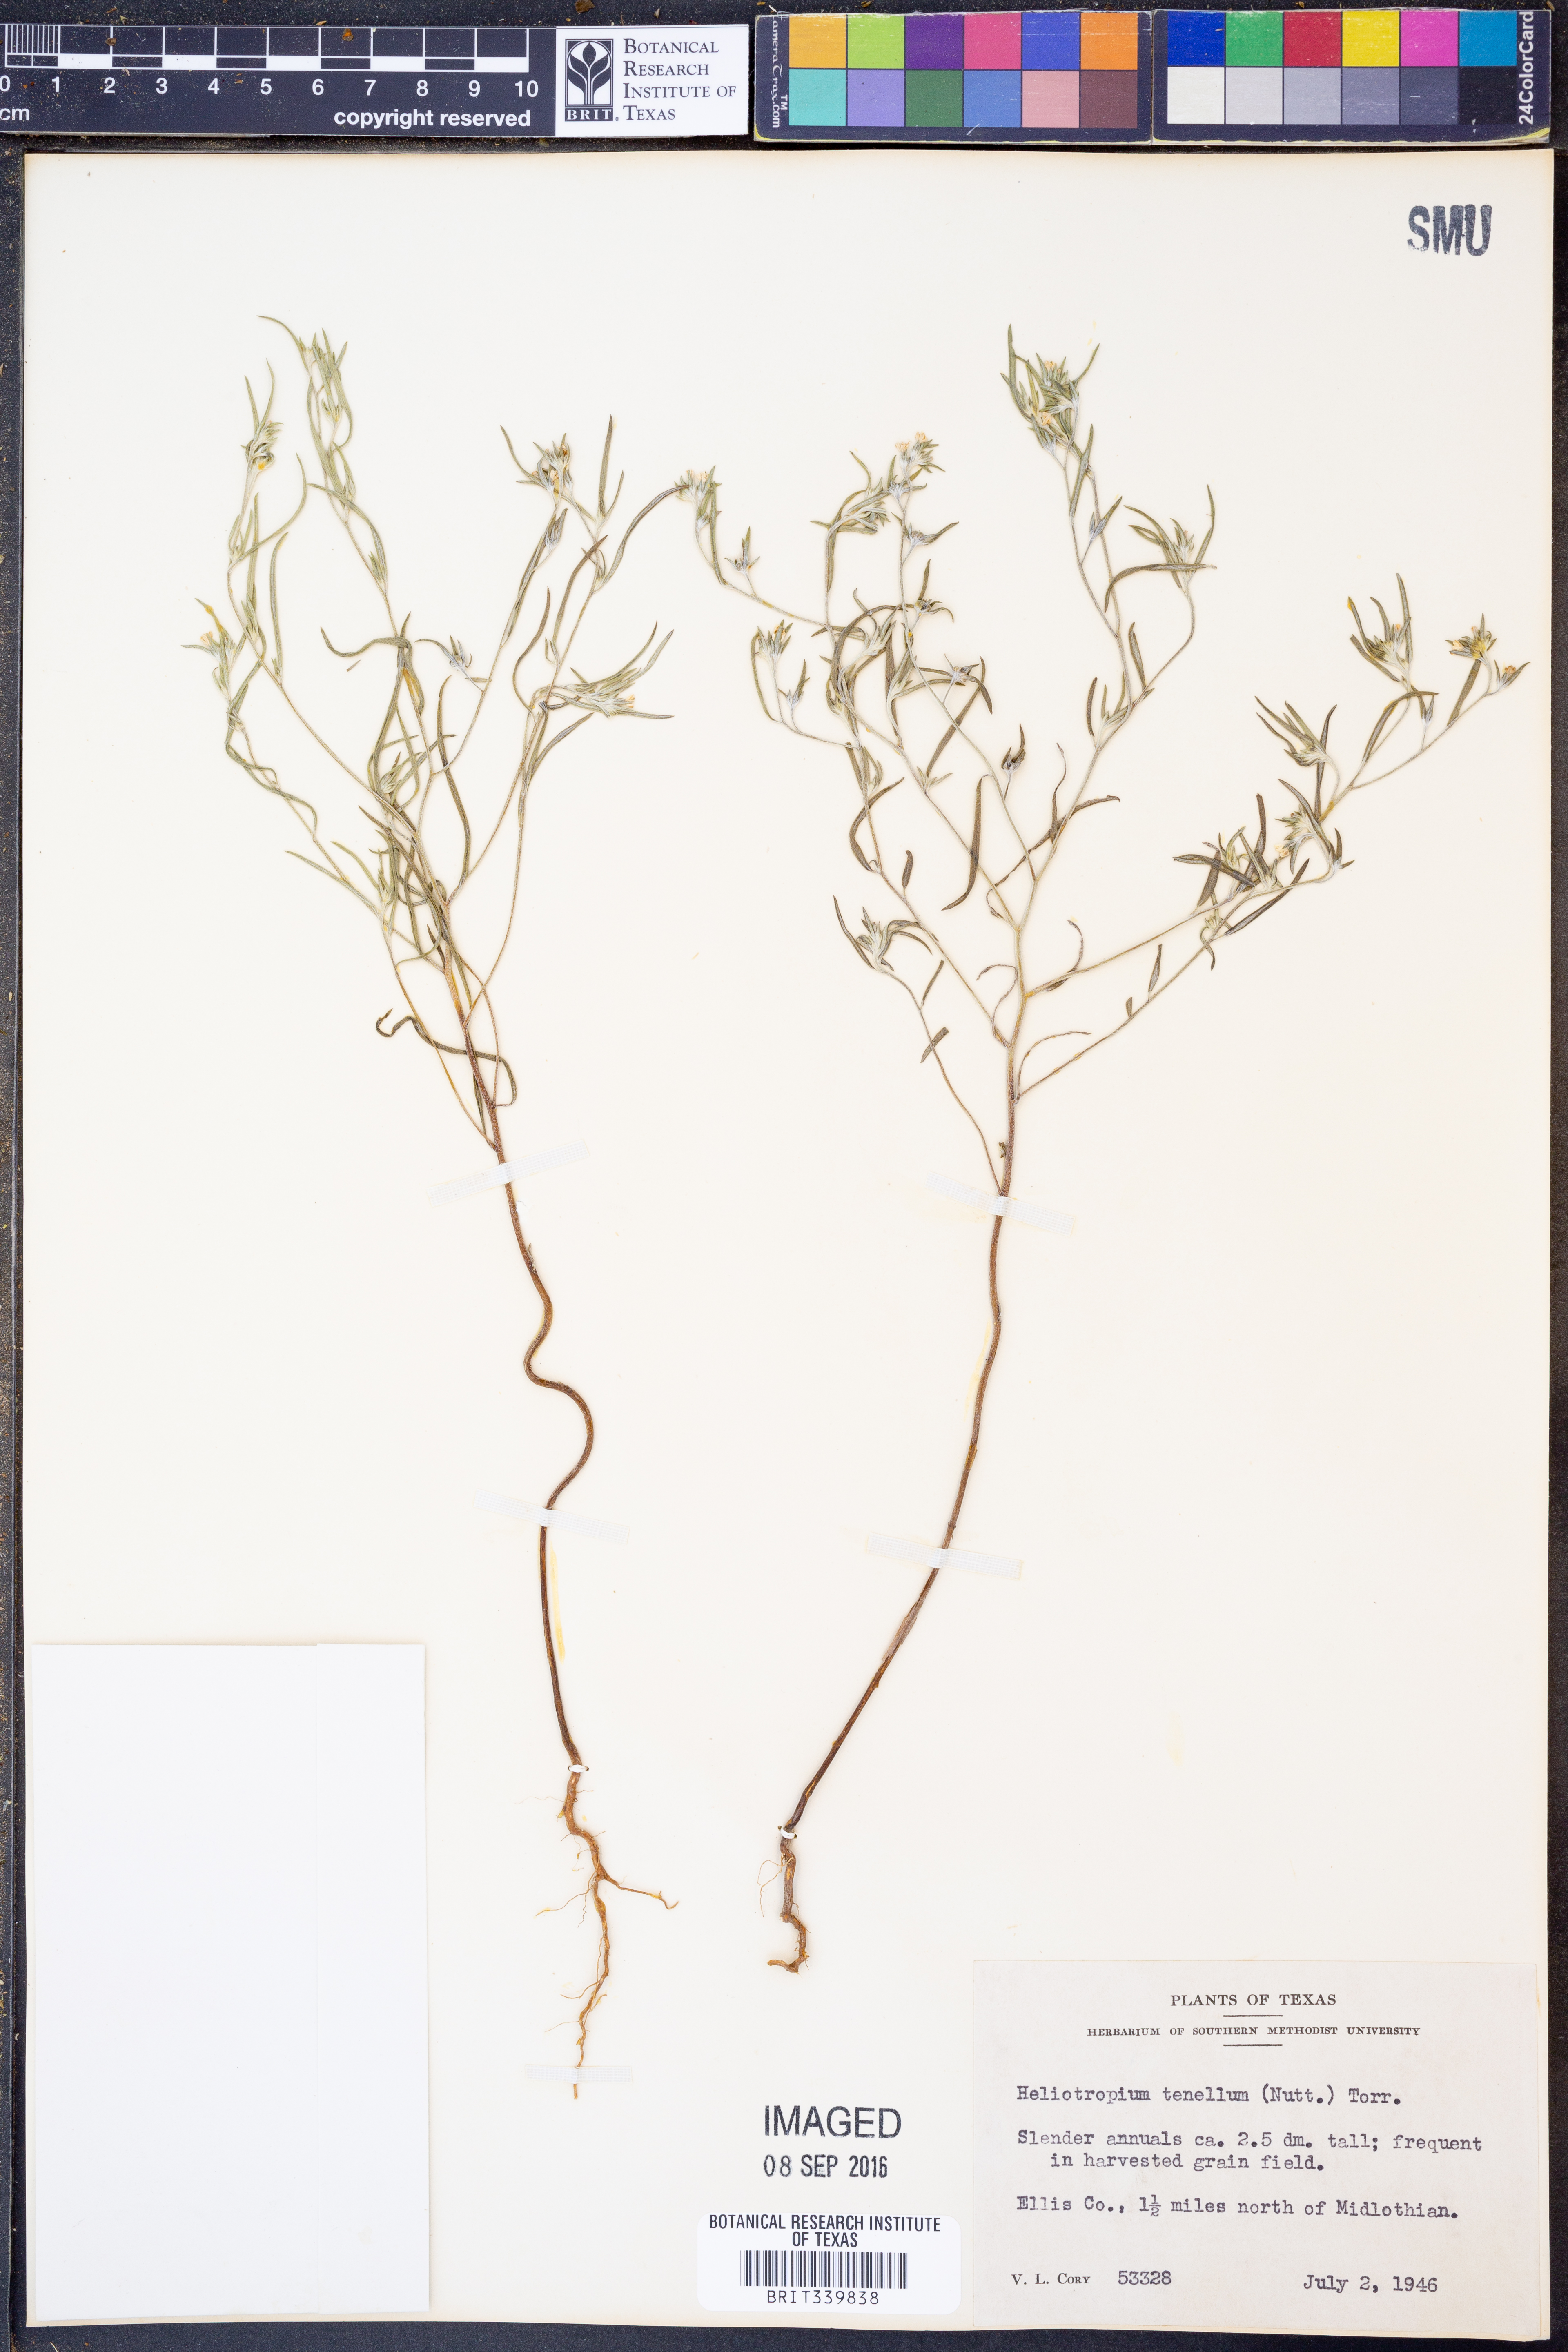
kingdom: Plantae
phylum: Tracheophyta
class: Magnoliopsida
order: Boraginales
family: Heliotropiaceae
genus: Euploca
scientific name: Euploca tenella
